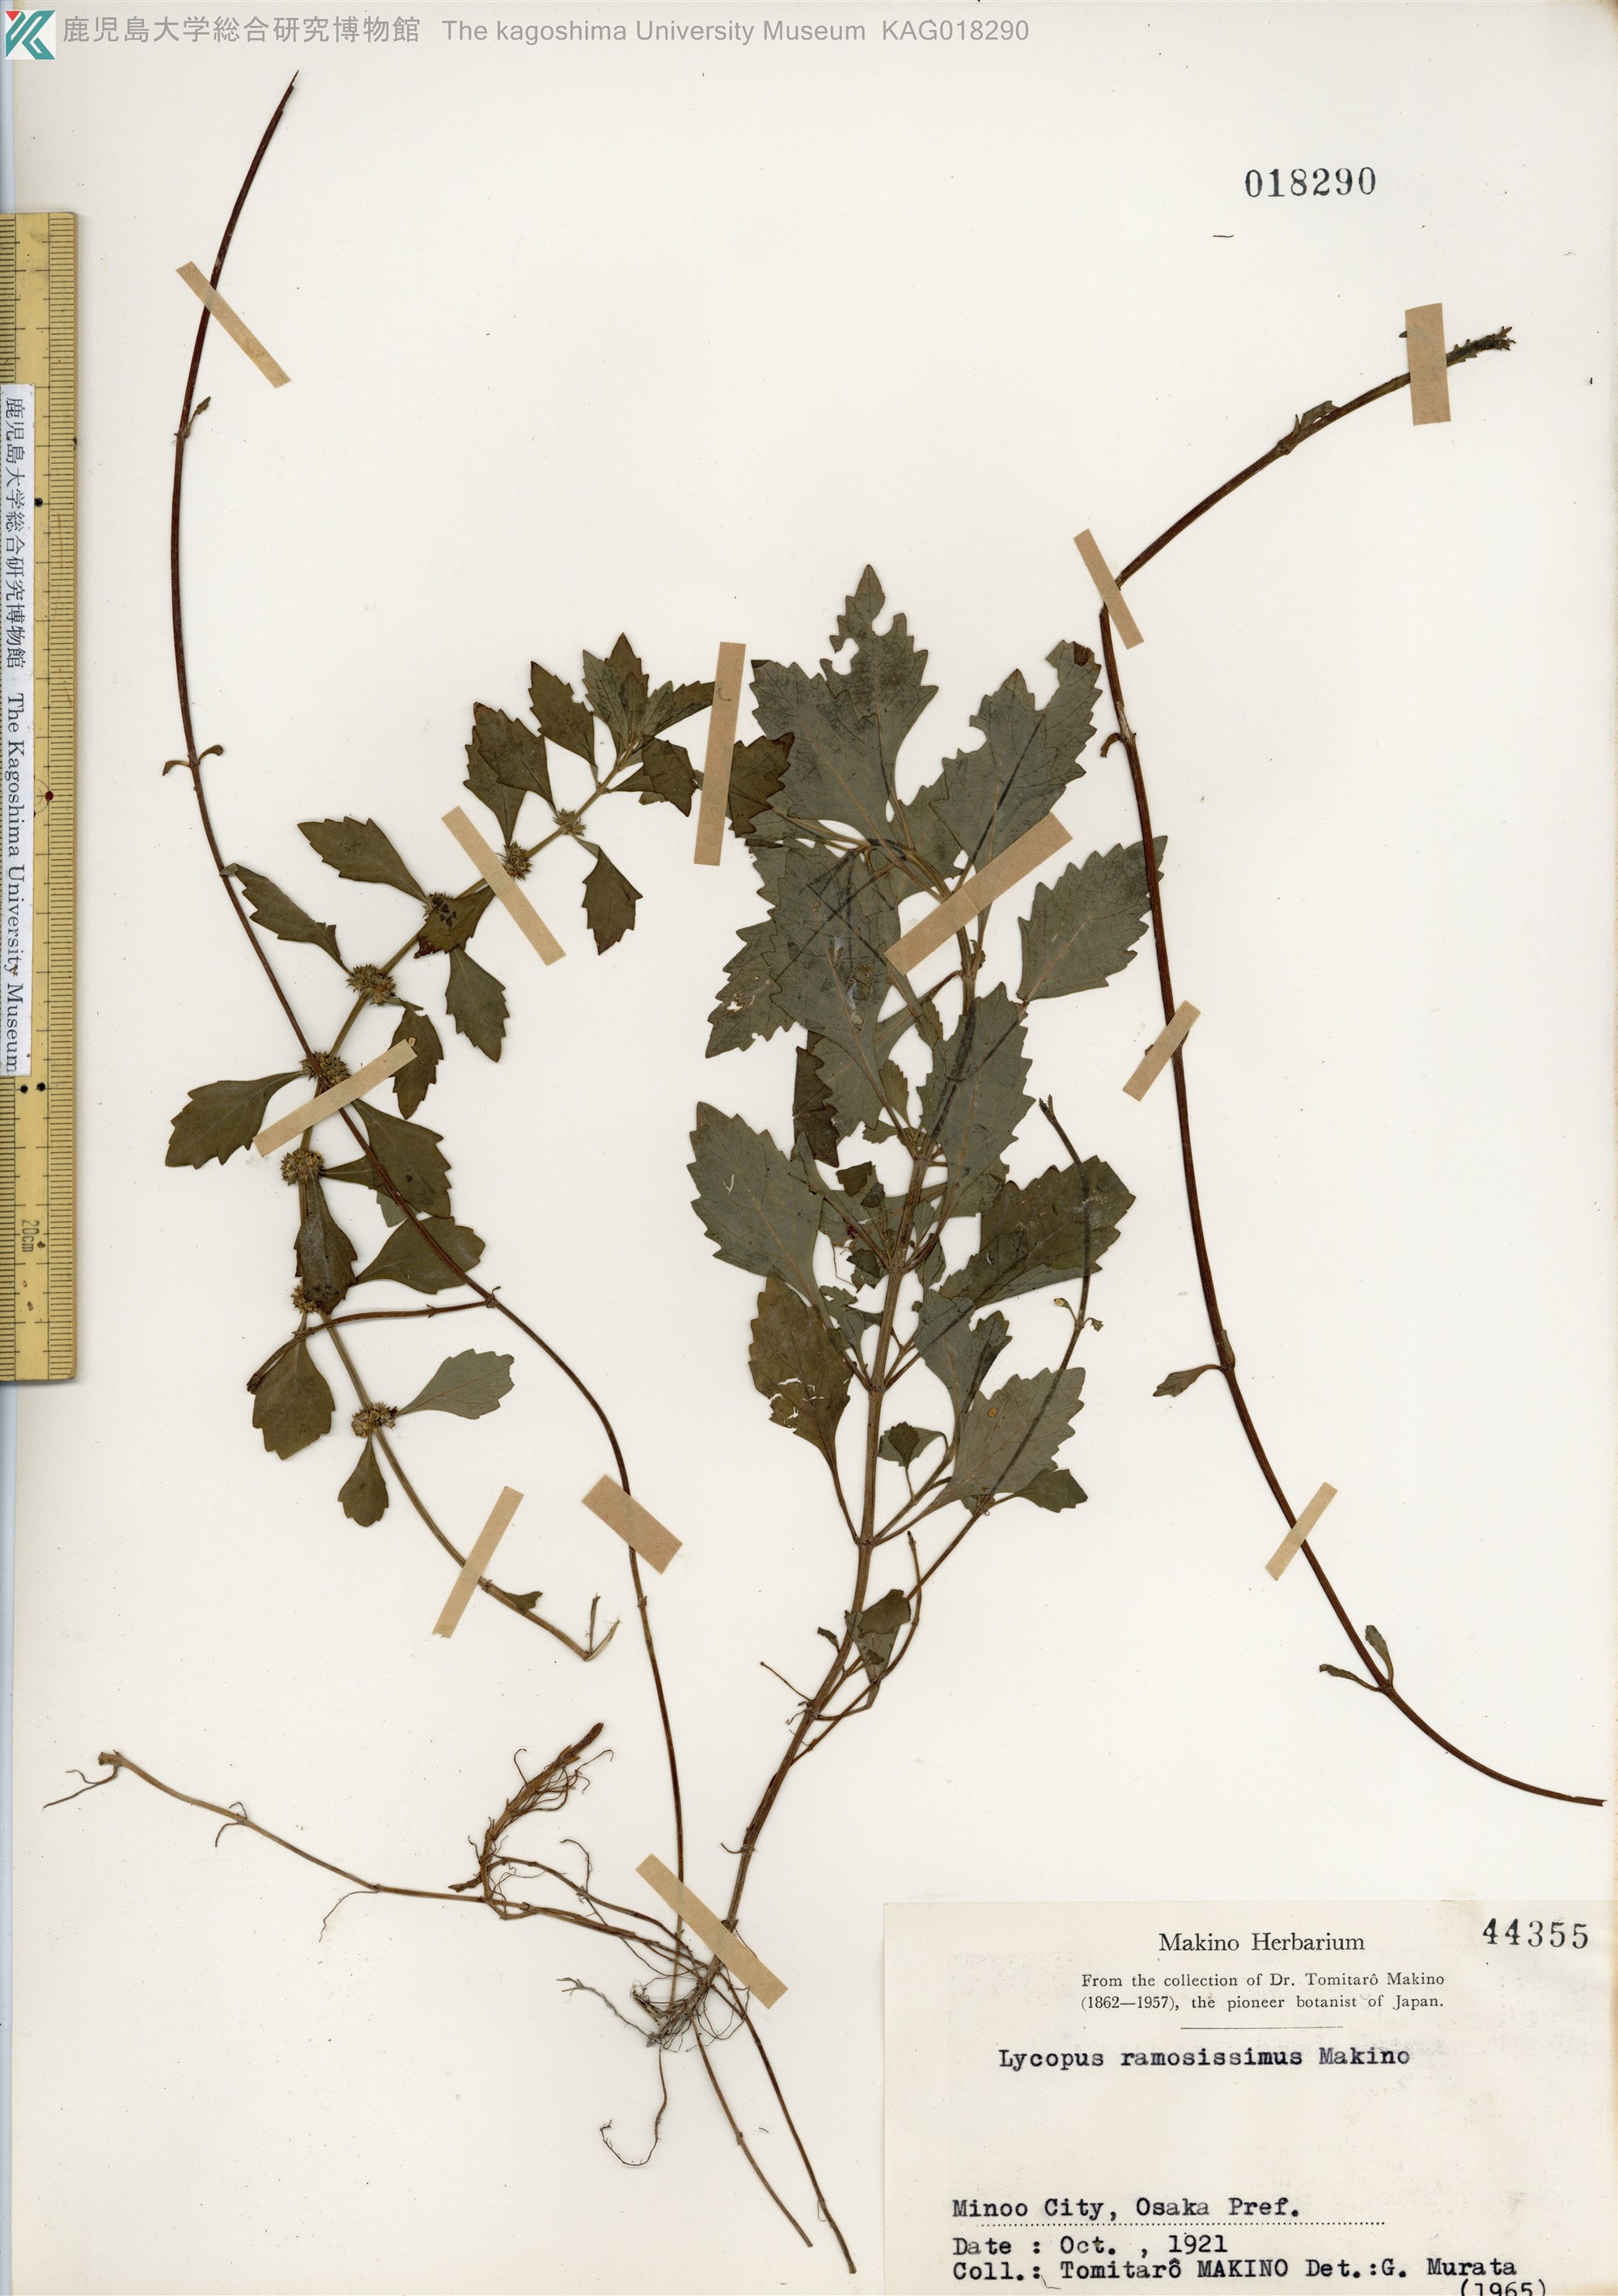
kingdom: Plantae
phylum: Tracheophyta
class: Magnoliopsida
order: Lamiales
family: Lamiaceae
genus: Lycopus
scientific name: Lycopus cavaleriei
